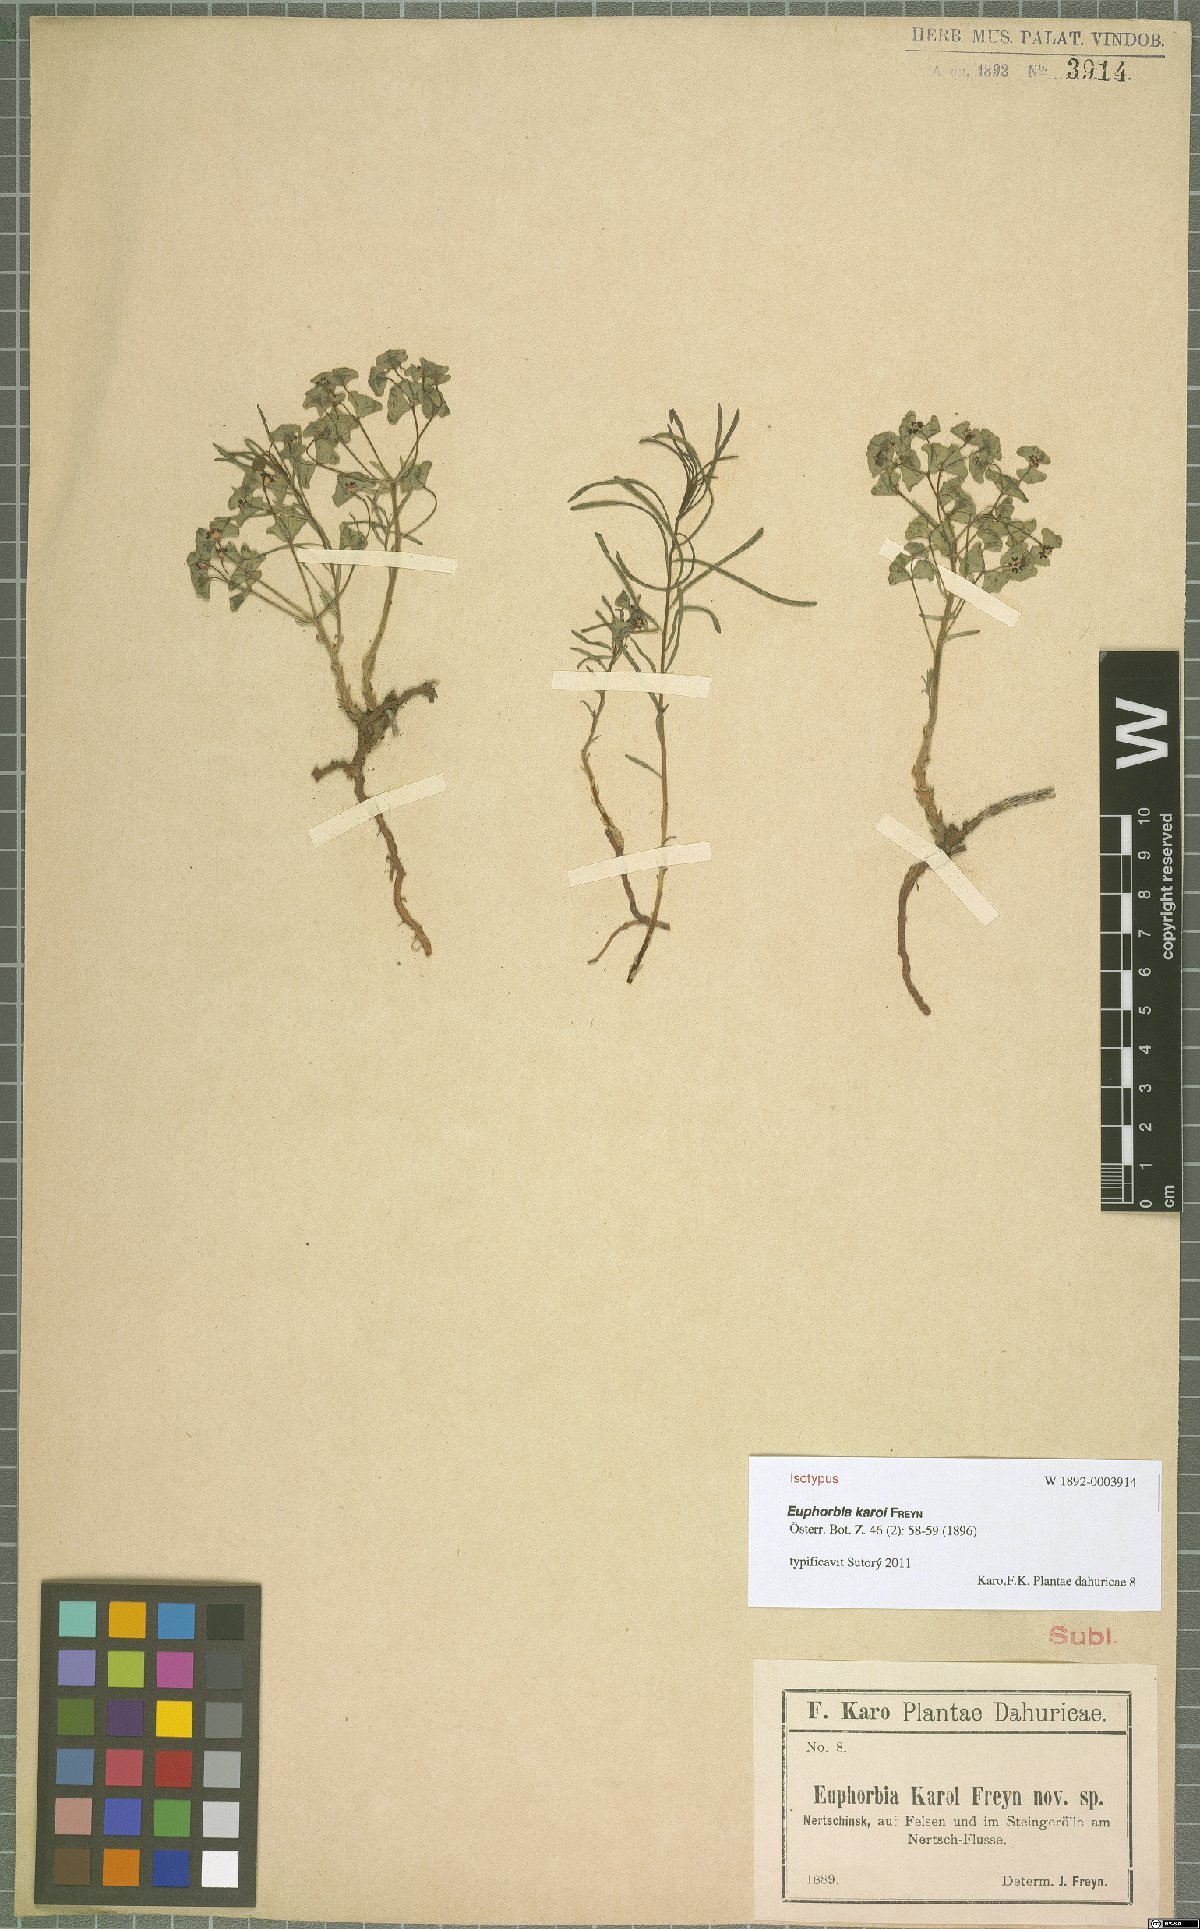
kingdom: Plantae
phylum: Tracheophyta
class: Magnoliopsida
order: Malpighiales
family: Euphorbiaceae
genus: Euphorbia
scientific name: Euphorbia esula
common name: Leafy spurge
